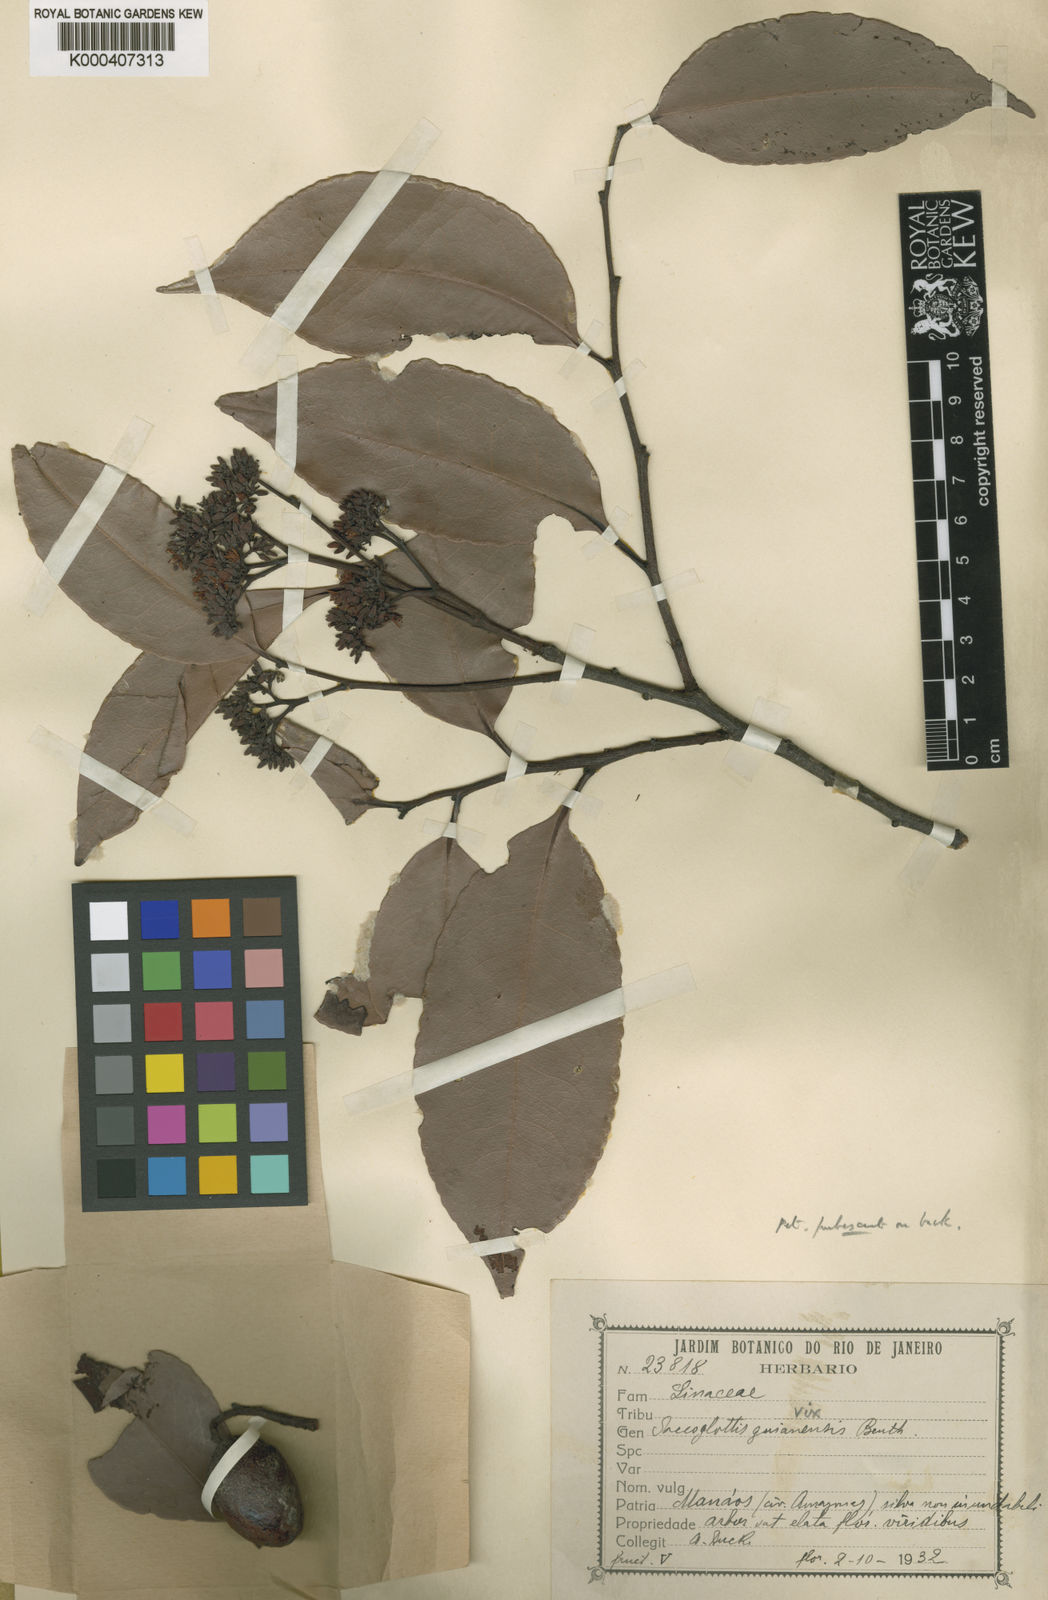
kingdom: Plantae
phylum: Tracheophyta
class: Magnoliopsida
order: Malpighiales
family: Humiriaceae
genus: Sacoglottis
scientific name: Sacoglottis guianensis
